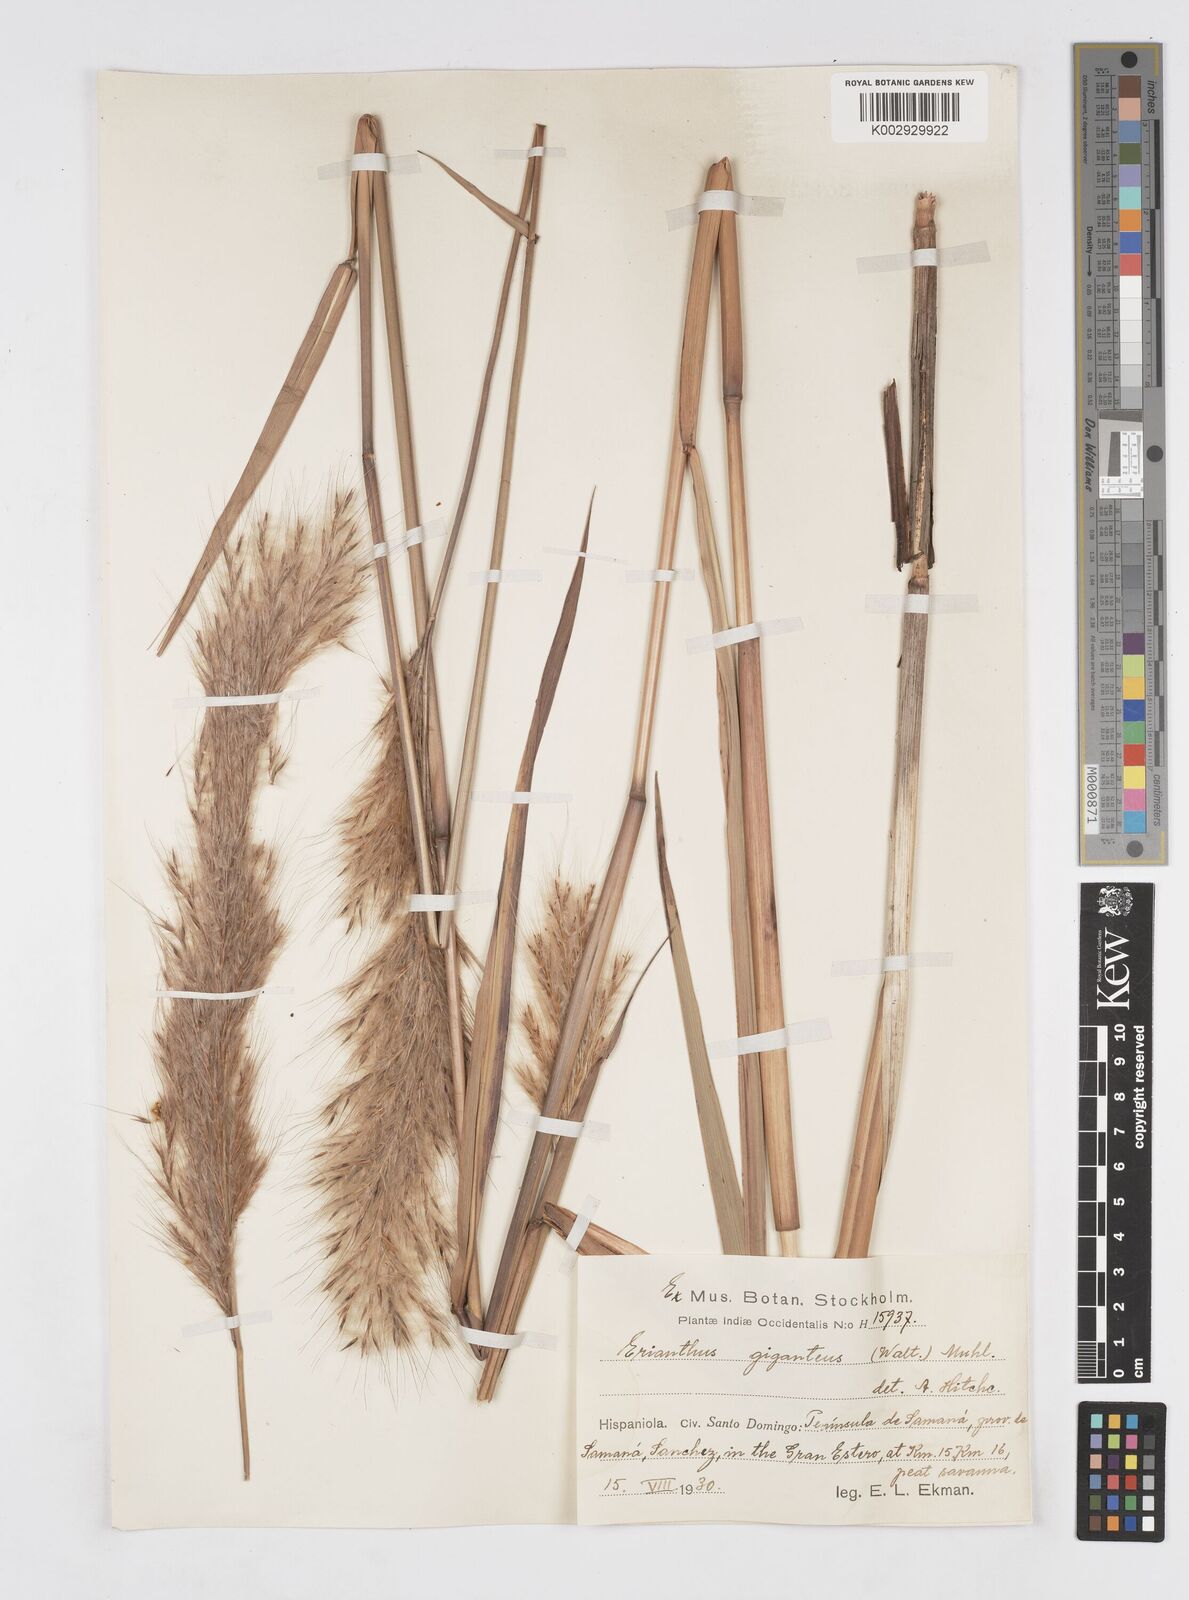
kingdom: Plantae
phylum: Tracheophyta
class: Liliopsida
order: Poales
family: Poaceae
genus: Erianthus
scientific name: Erianthus giganteus
